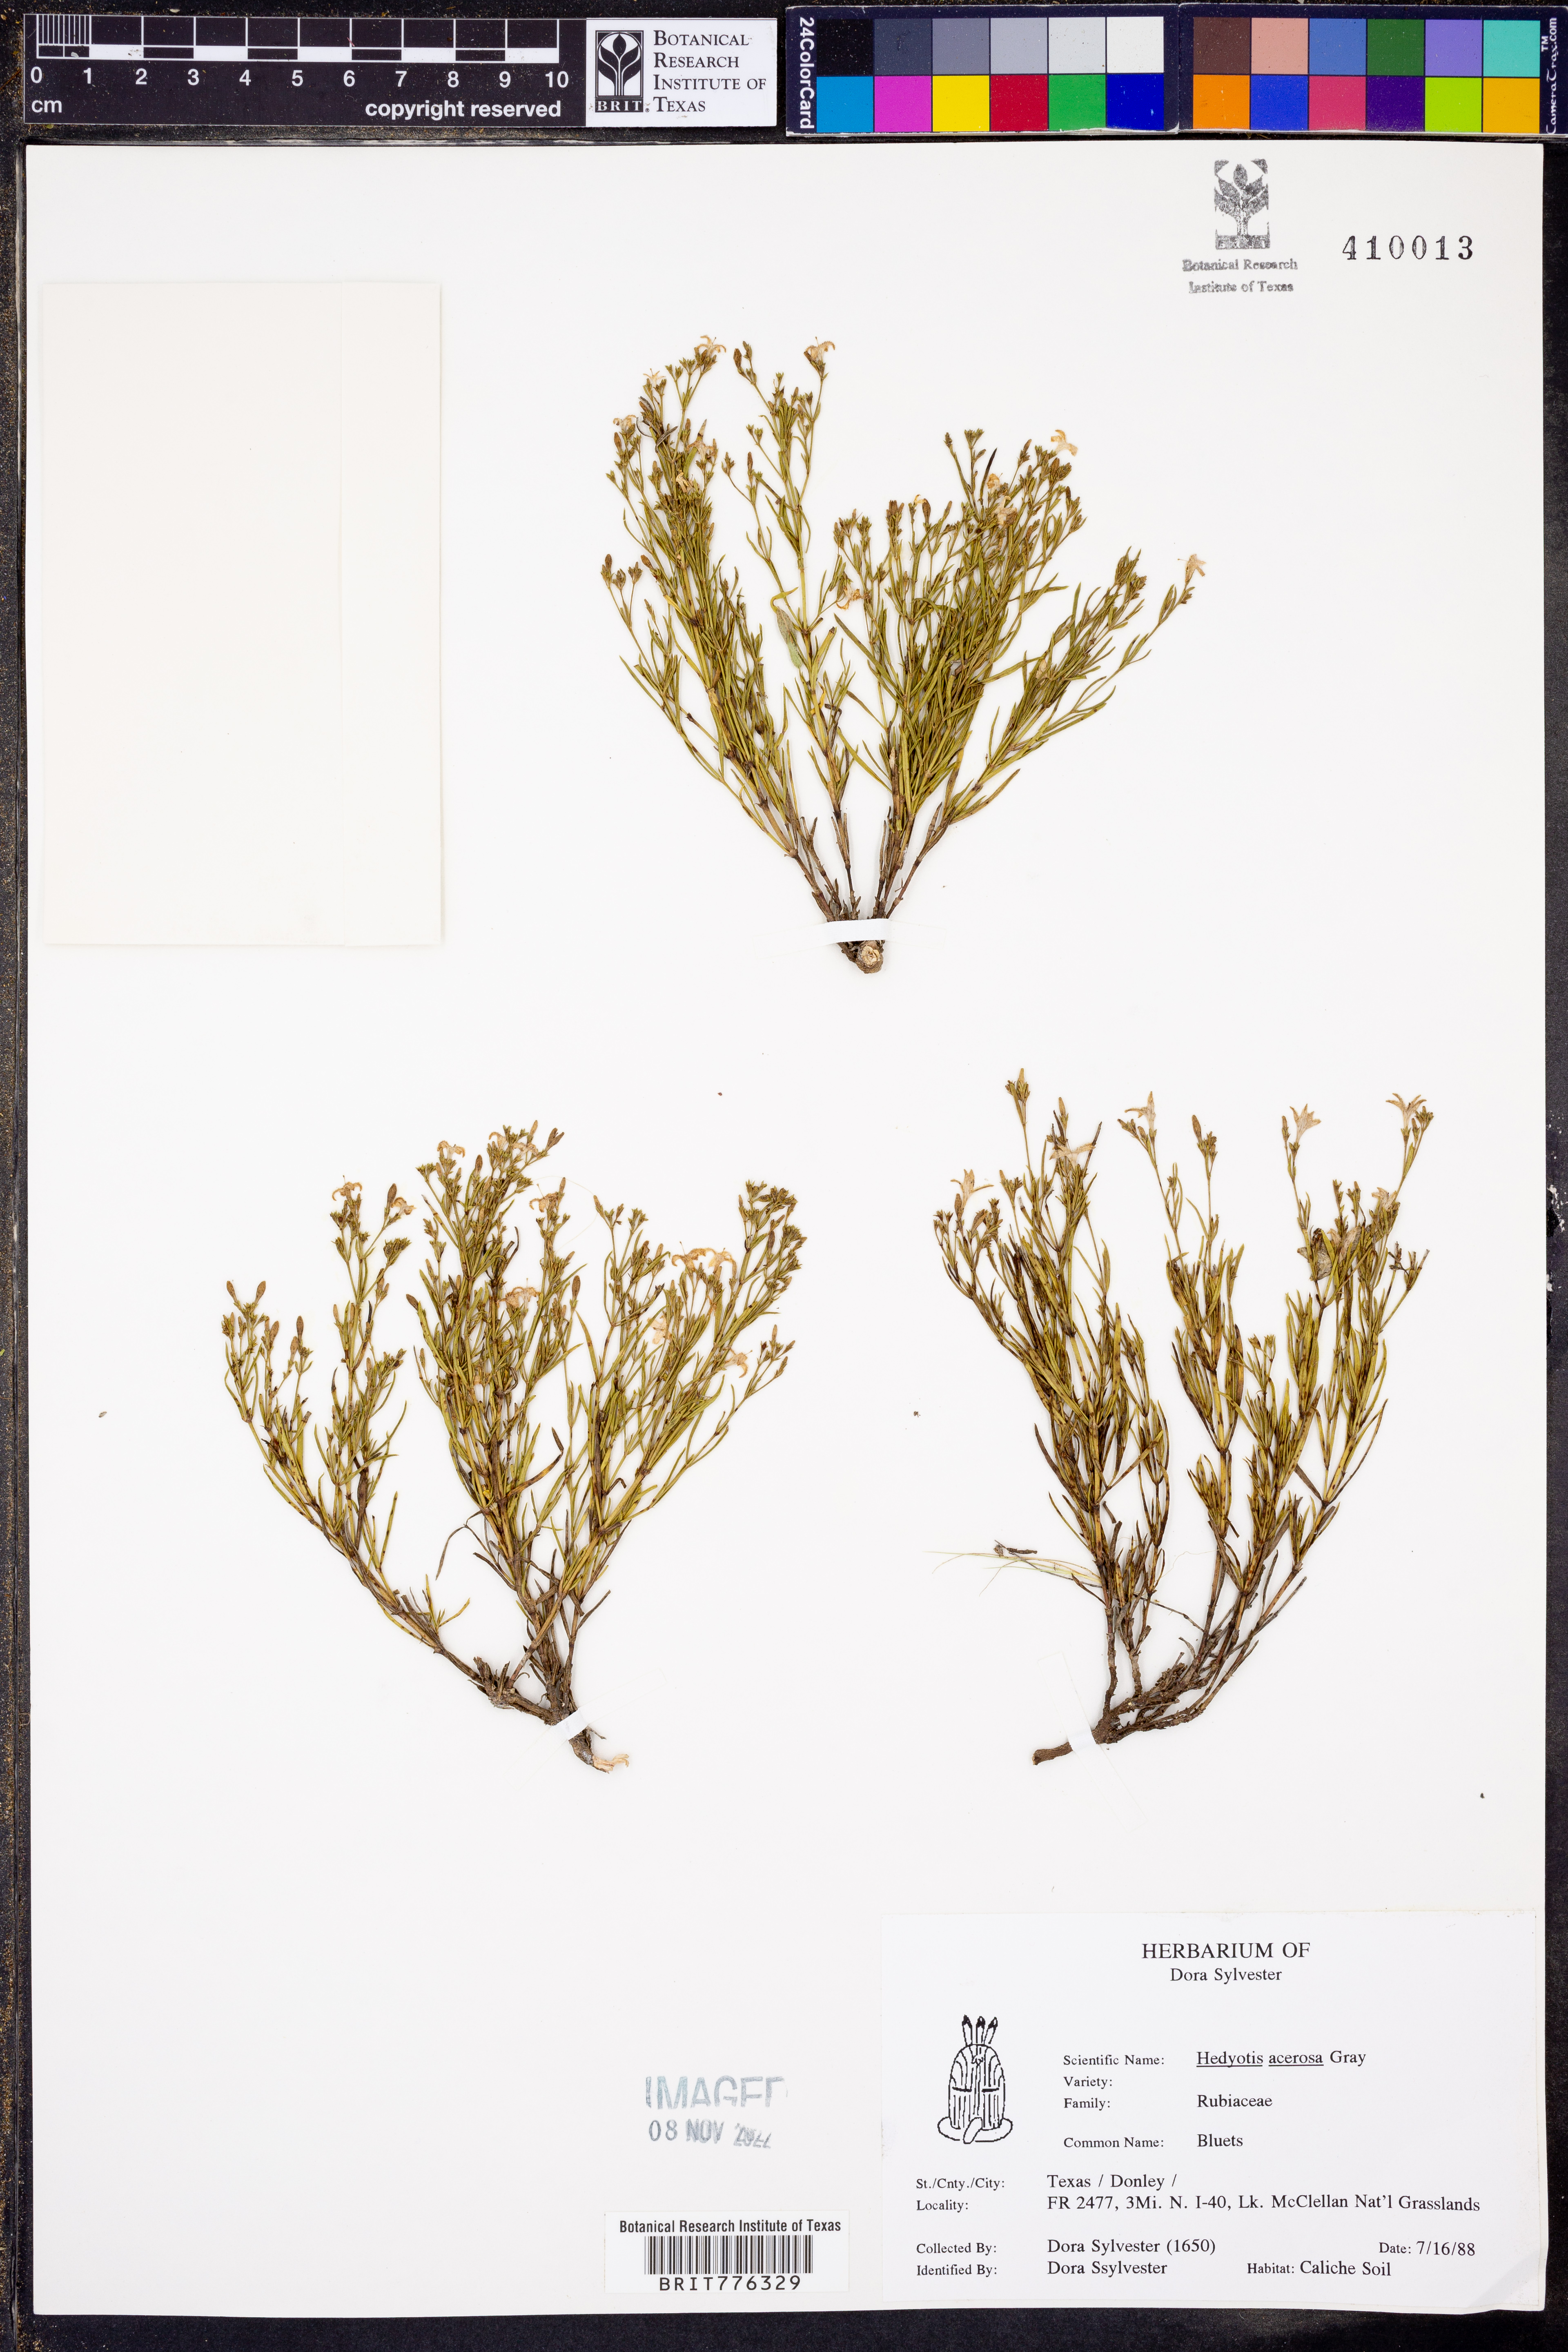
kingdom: Plantae
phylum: Tracheophyta
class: Magnoliopsida
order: Gentianales
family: Rubiaceae
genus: Houstonia
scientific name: Houstonia acerosa
